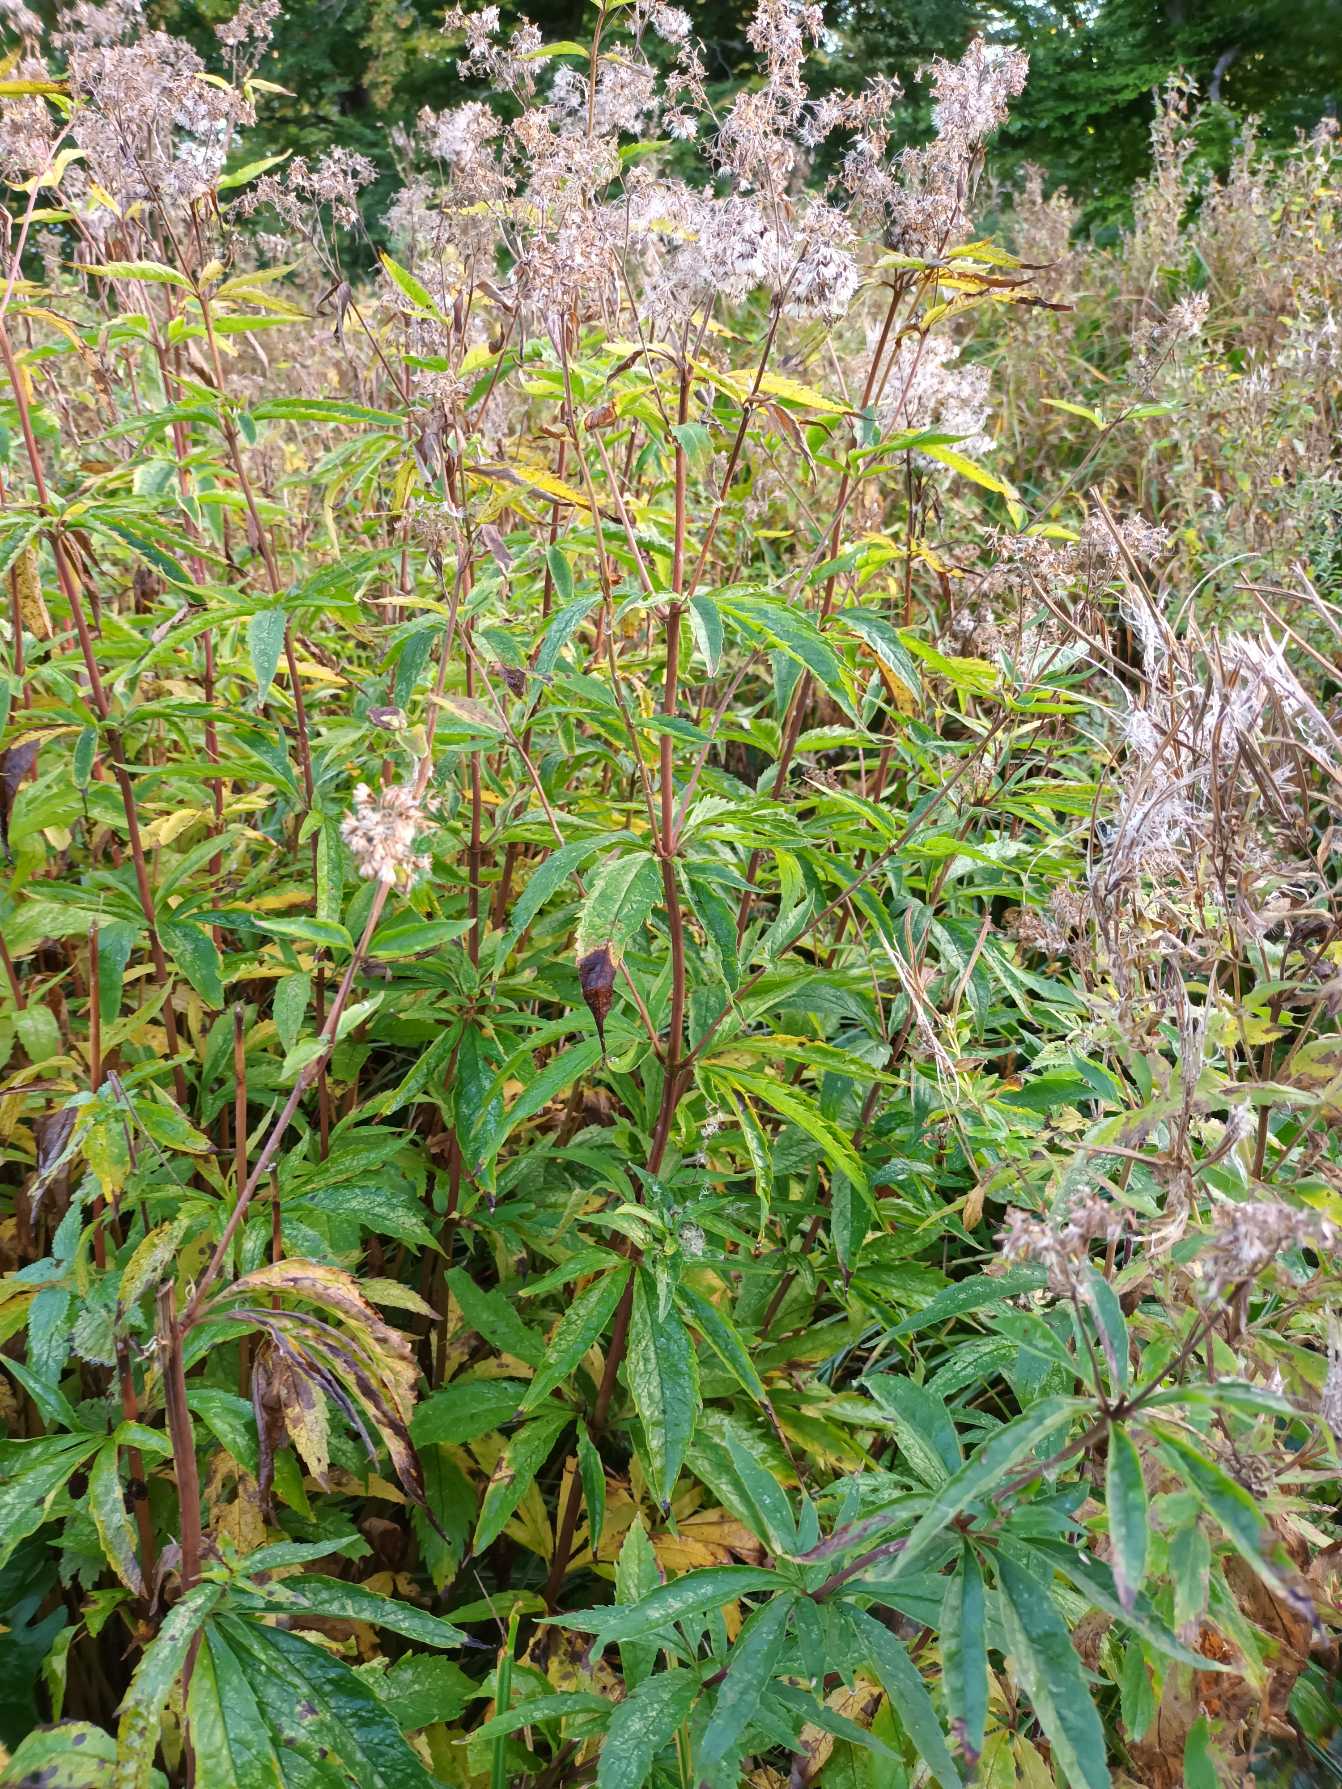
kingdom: Plantae
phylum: Tracheophyta
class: Magnoliopsida
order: Asterales
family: Asteraceae
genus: Eupatorium
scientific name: Eupatorium cannabinum
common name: Hjortetrøst
